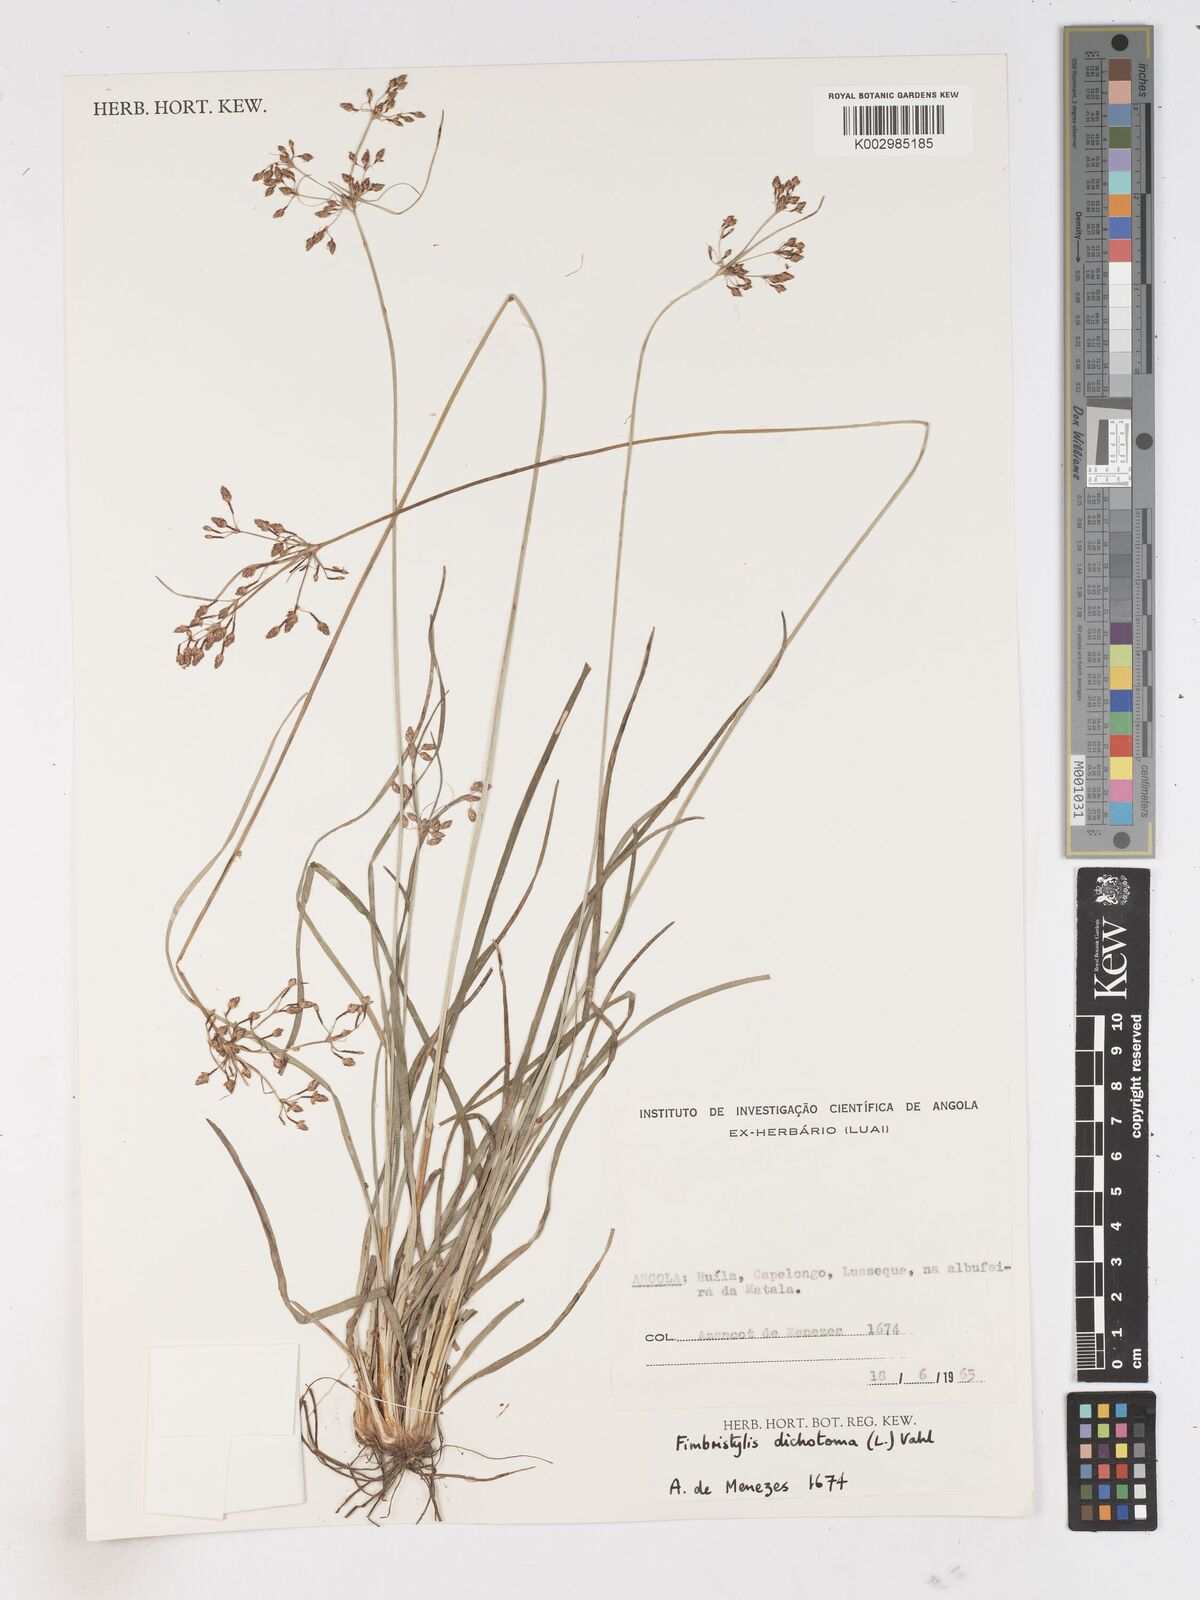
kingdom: Plantae
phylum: Tracheophyta
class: Liliopsida
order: Poales
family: Cyperaceae
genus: Fimbristylis
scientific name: Fimbristylis dichotoma
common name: Forked fimbry
